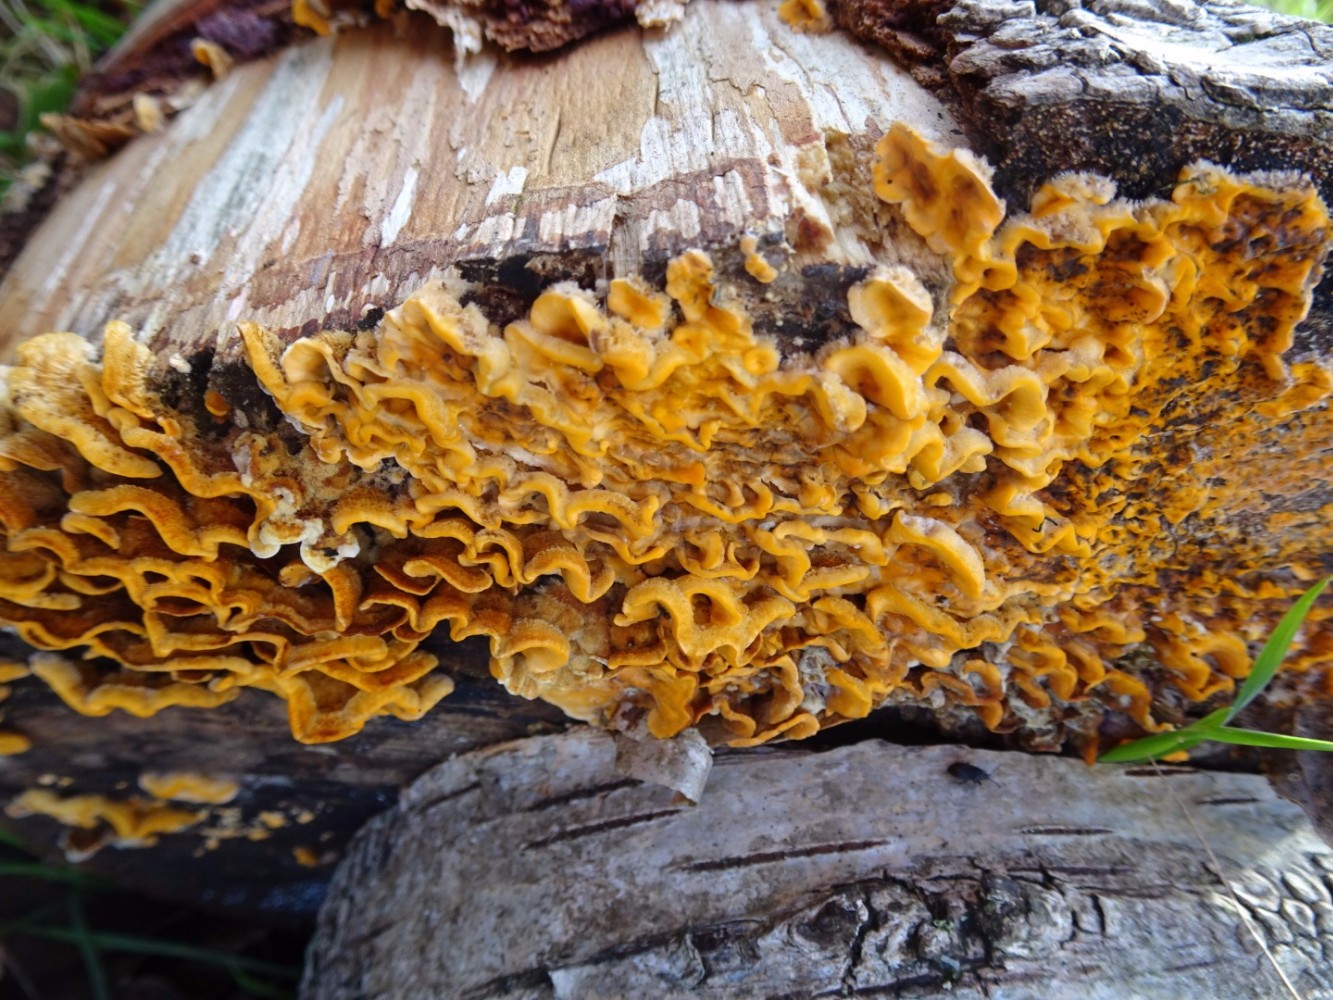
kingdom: Fungi
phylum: Basidiomycota
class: Agaricomycetes
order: Russulales
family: Stereaceae
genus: Stereum
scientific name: Stereum hirsutum
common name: håret lædersvamp
